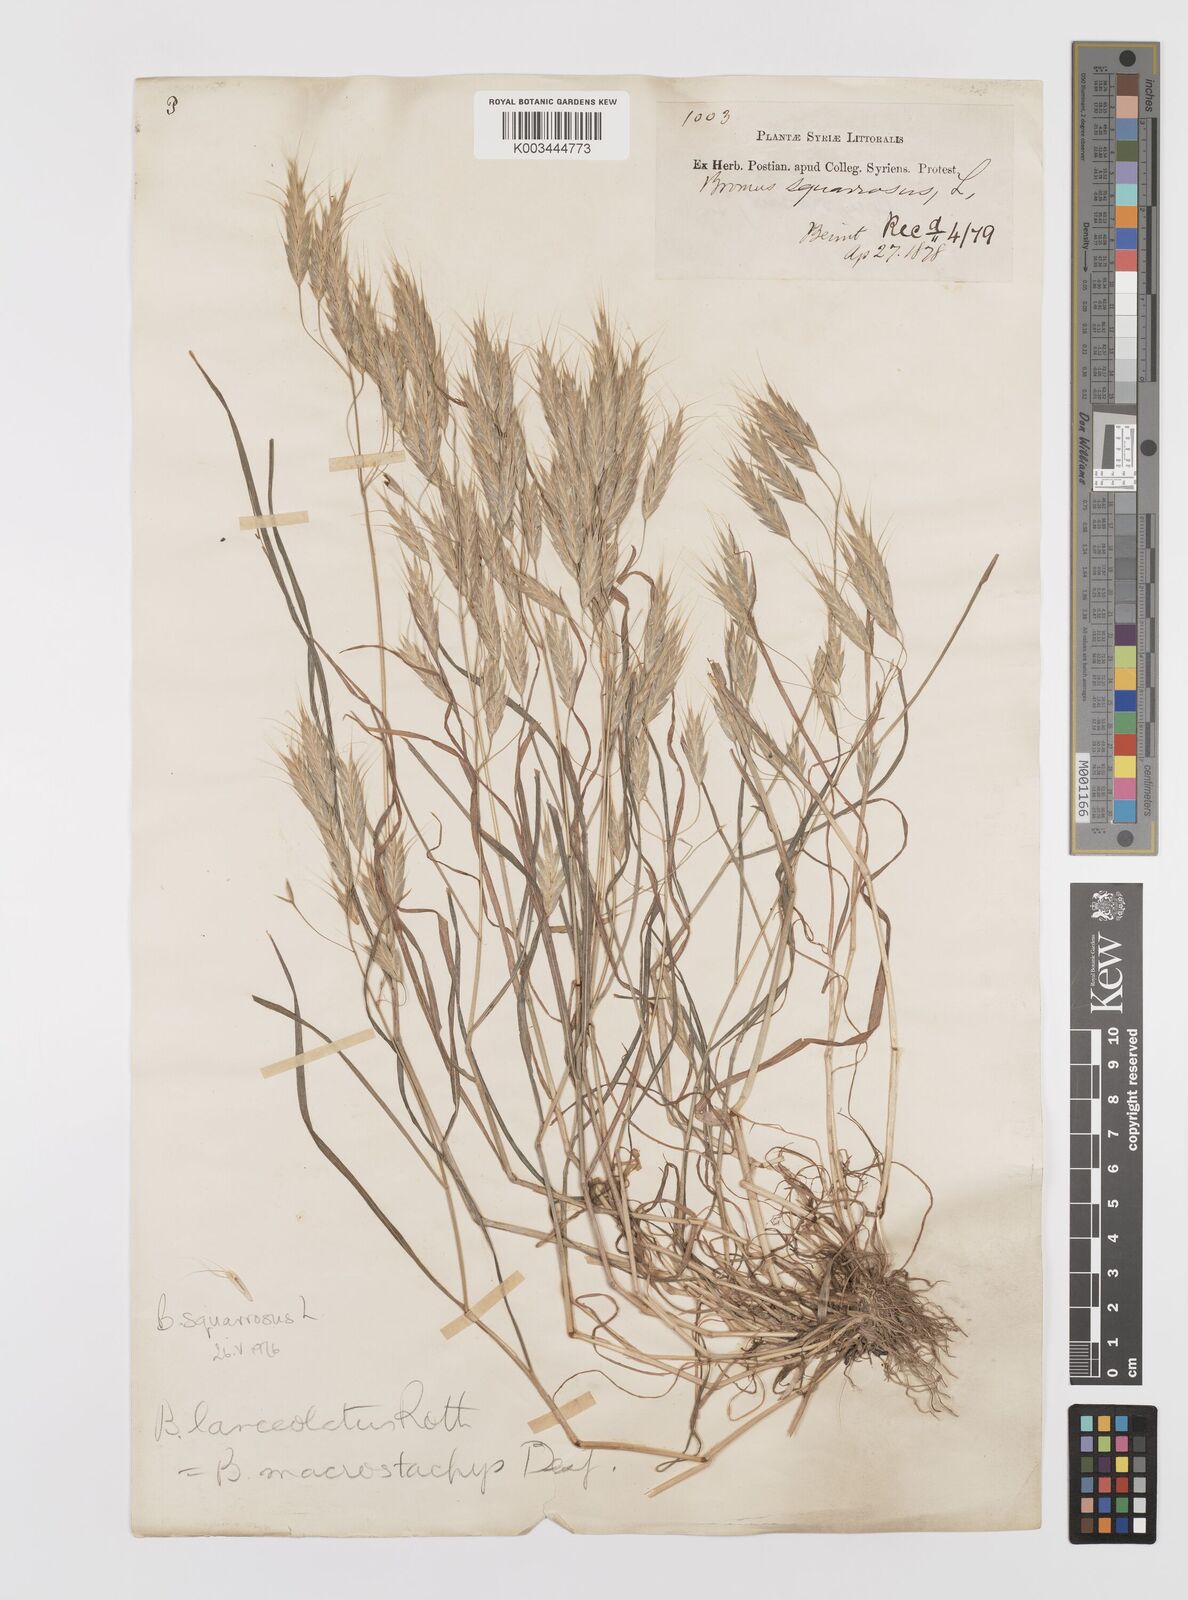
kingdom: Plantae
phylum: Tracheophyta
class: Liliopsida
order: Poales
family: Poaceae
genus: Bromus
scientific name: Bromus squarrosus
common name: Corn brome
